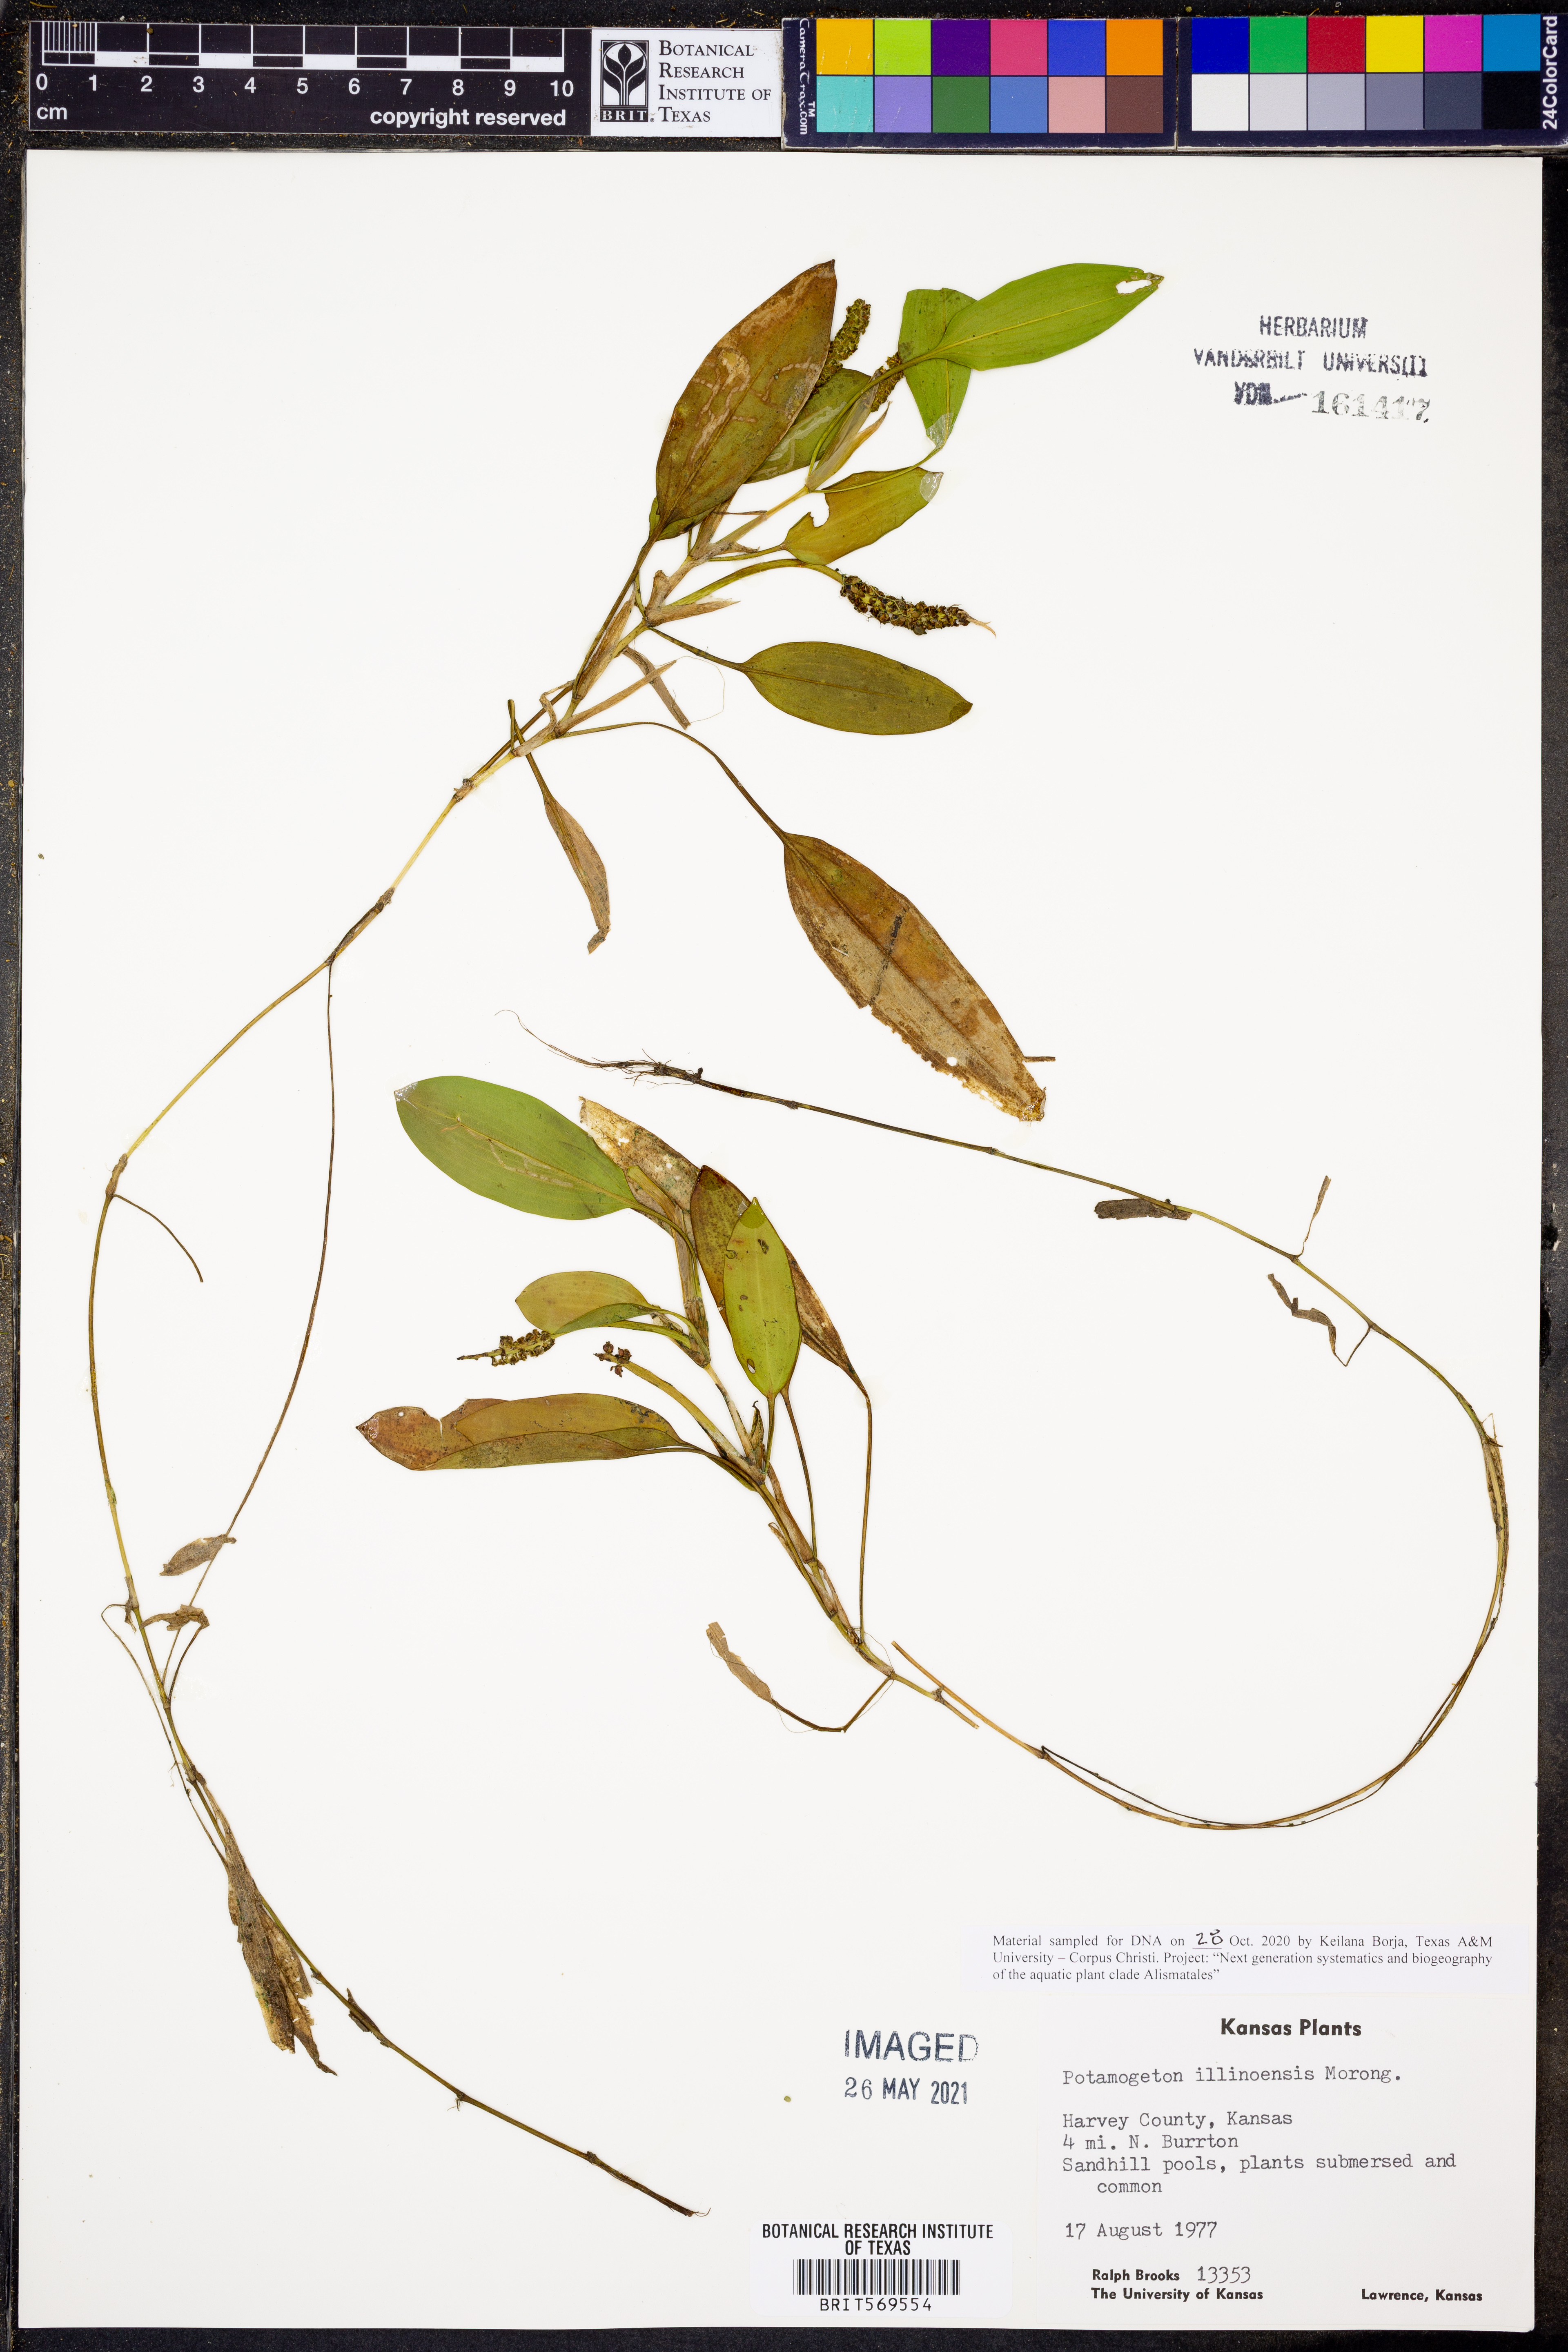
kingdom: Plantae
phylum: Tracheophyta
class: Liliopsida
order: Alismatales
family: Potamogetonaceae
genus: Potamogeton
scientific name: Potamogeton illinoensis
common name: Illinois pondweed
